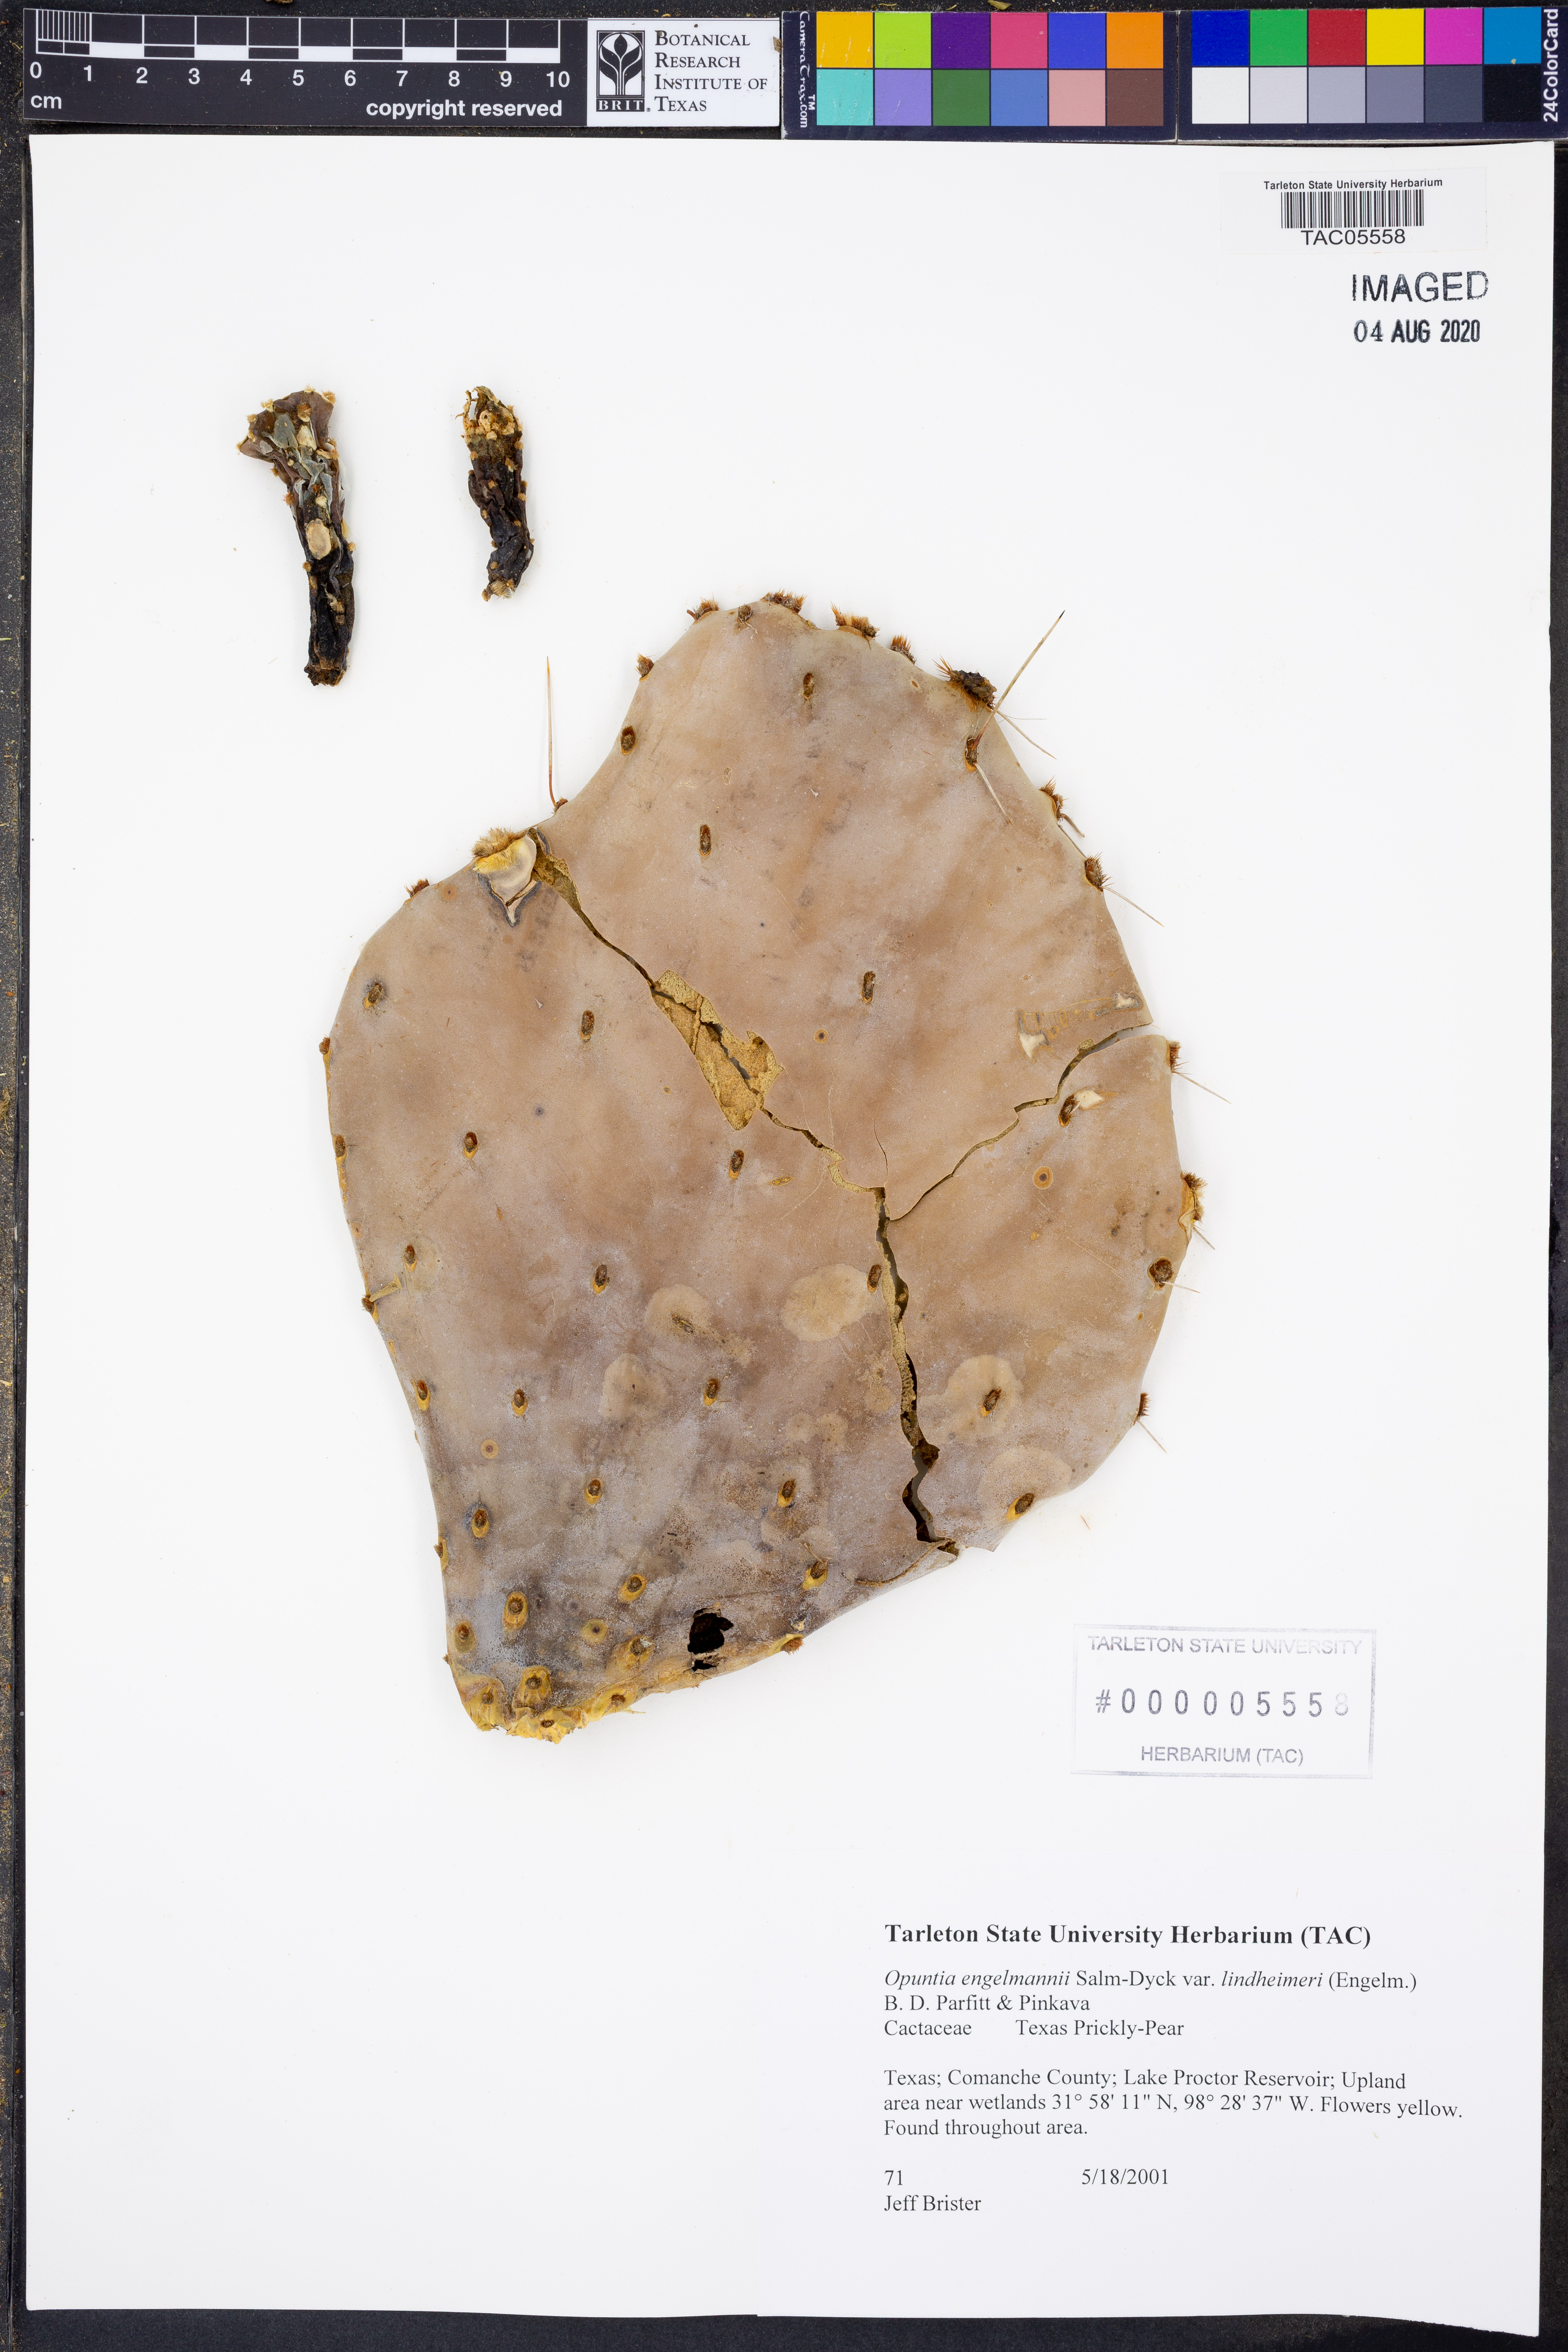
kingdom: Plantae
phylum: Tracheophyta
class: Magnoliopsida
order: Caryophyllales
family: Cactaceae
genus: Opuntia
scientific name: Opuntia engelmannii
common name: Cactus-apple
